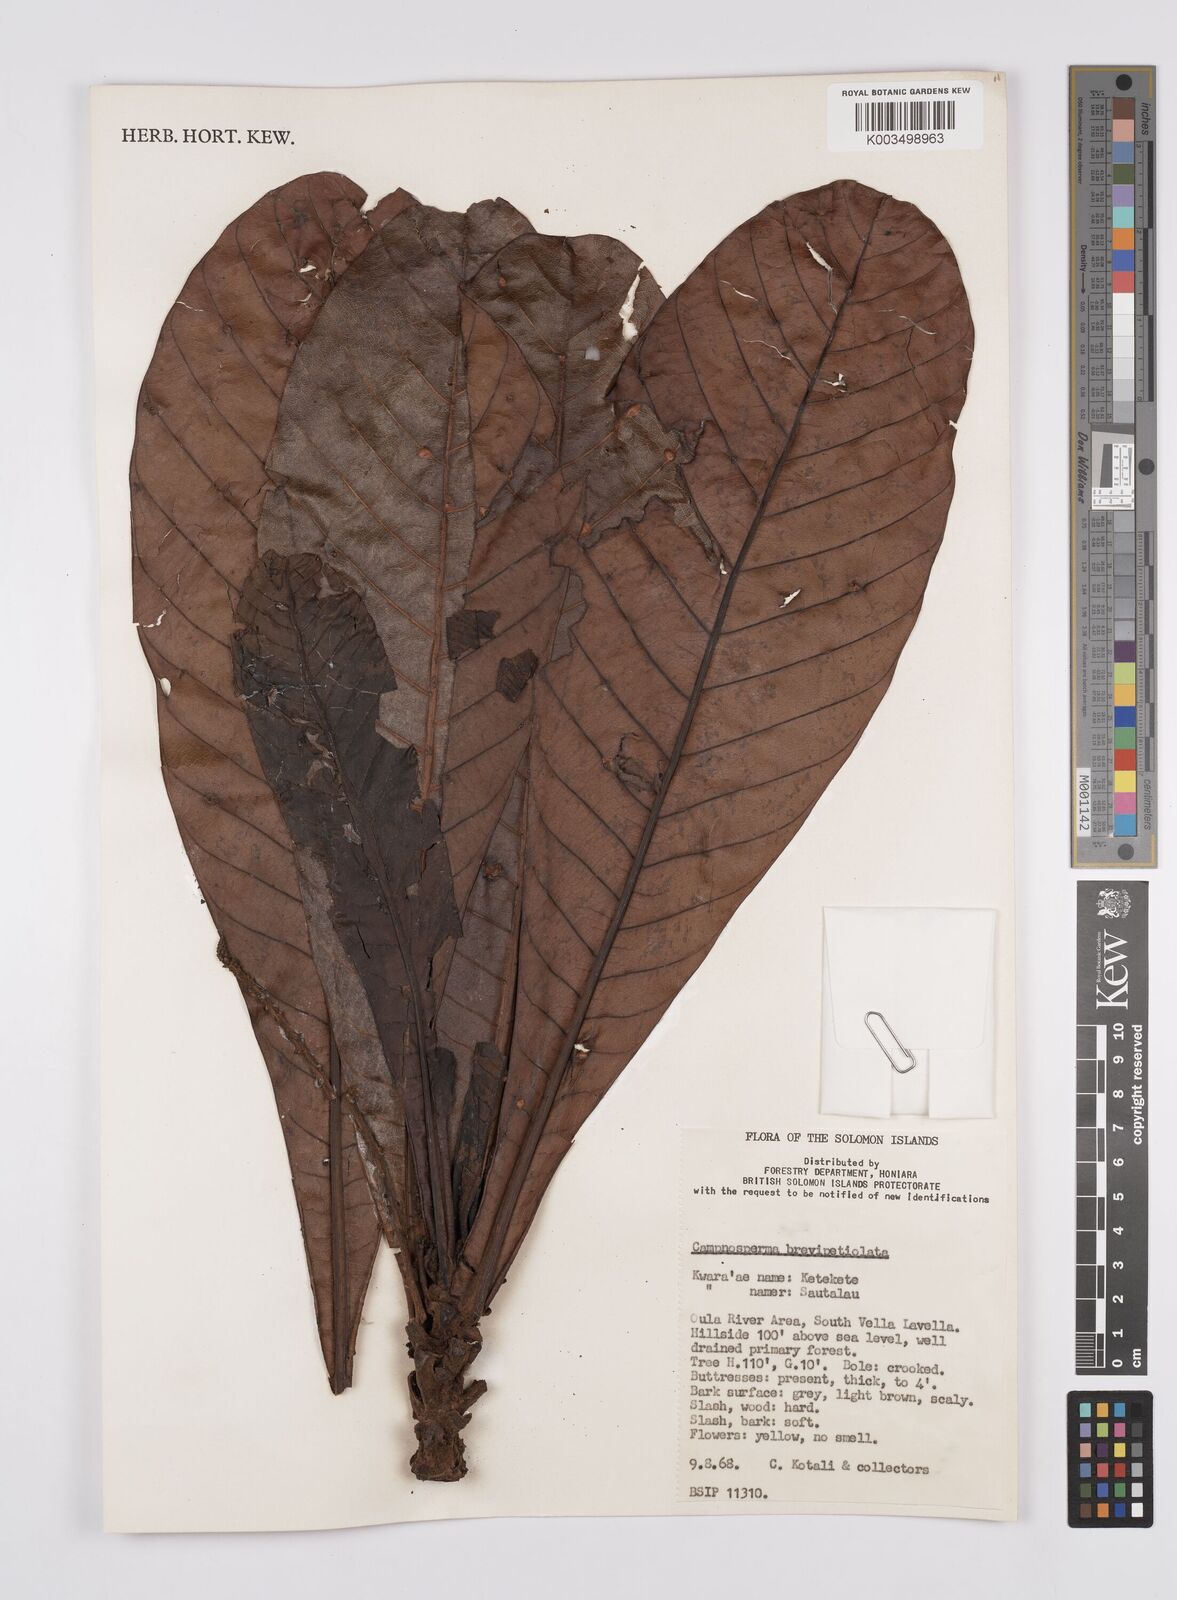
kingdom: Plantae
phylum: Tracheophyta
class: Magnoliopsida
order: Sapindales
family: Anacardiaceae
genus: Campnosperma
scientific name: Campnosperma brevipetiolatum
